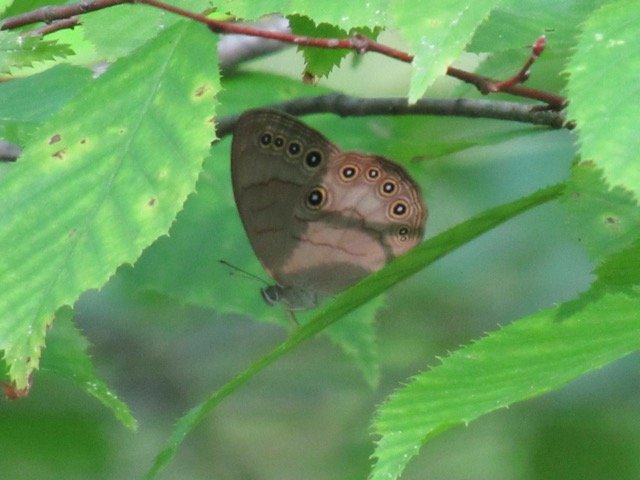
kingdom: Animalia
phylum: Arthropoda
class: Insecta
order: Lepidoptera
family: Nymphalidae
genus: Lethe
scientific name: Lethe eurydice
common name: Appalachian Eyed Brown
